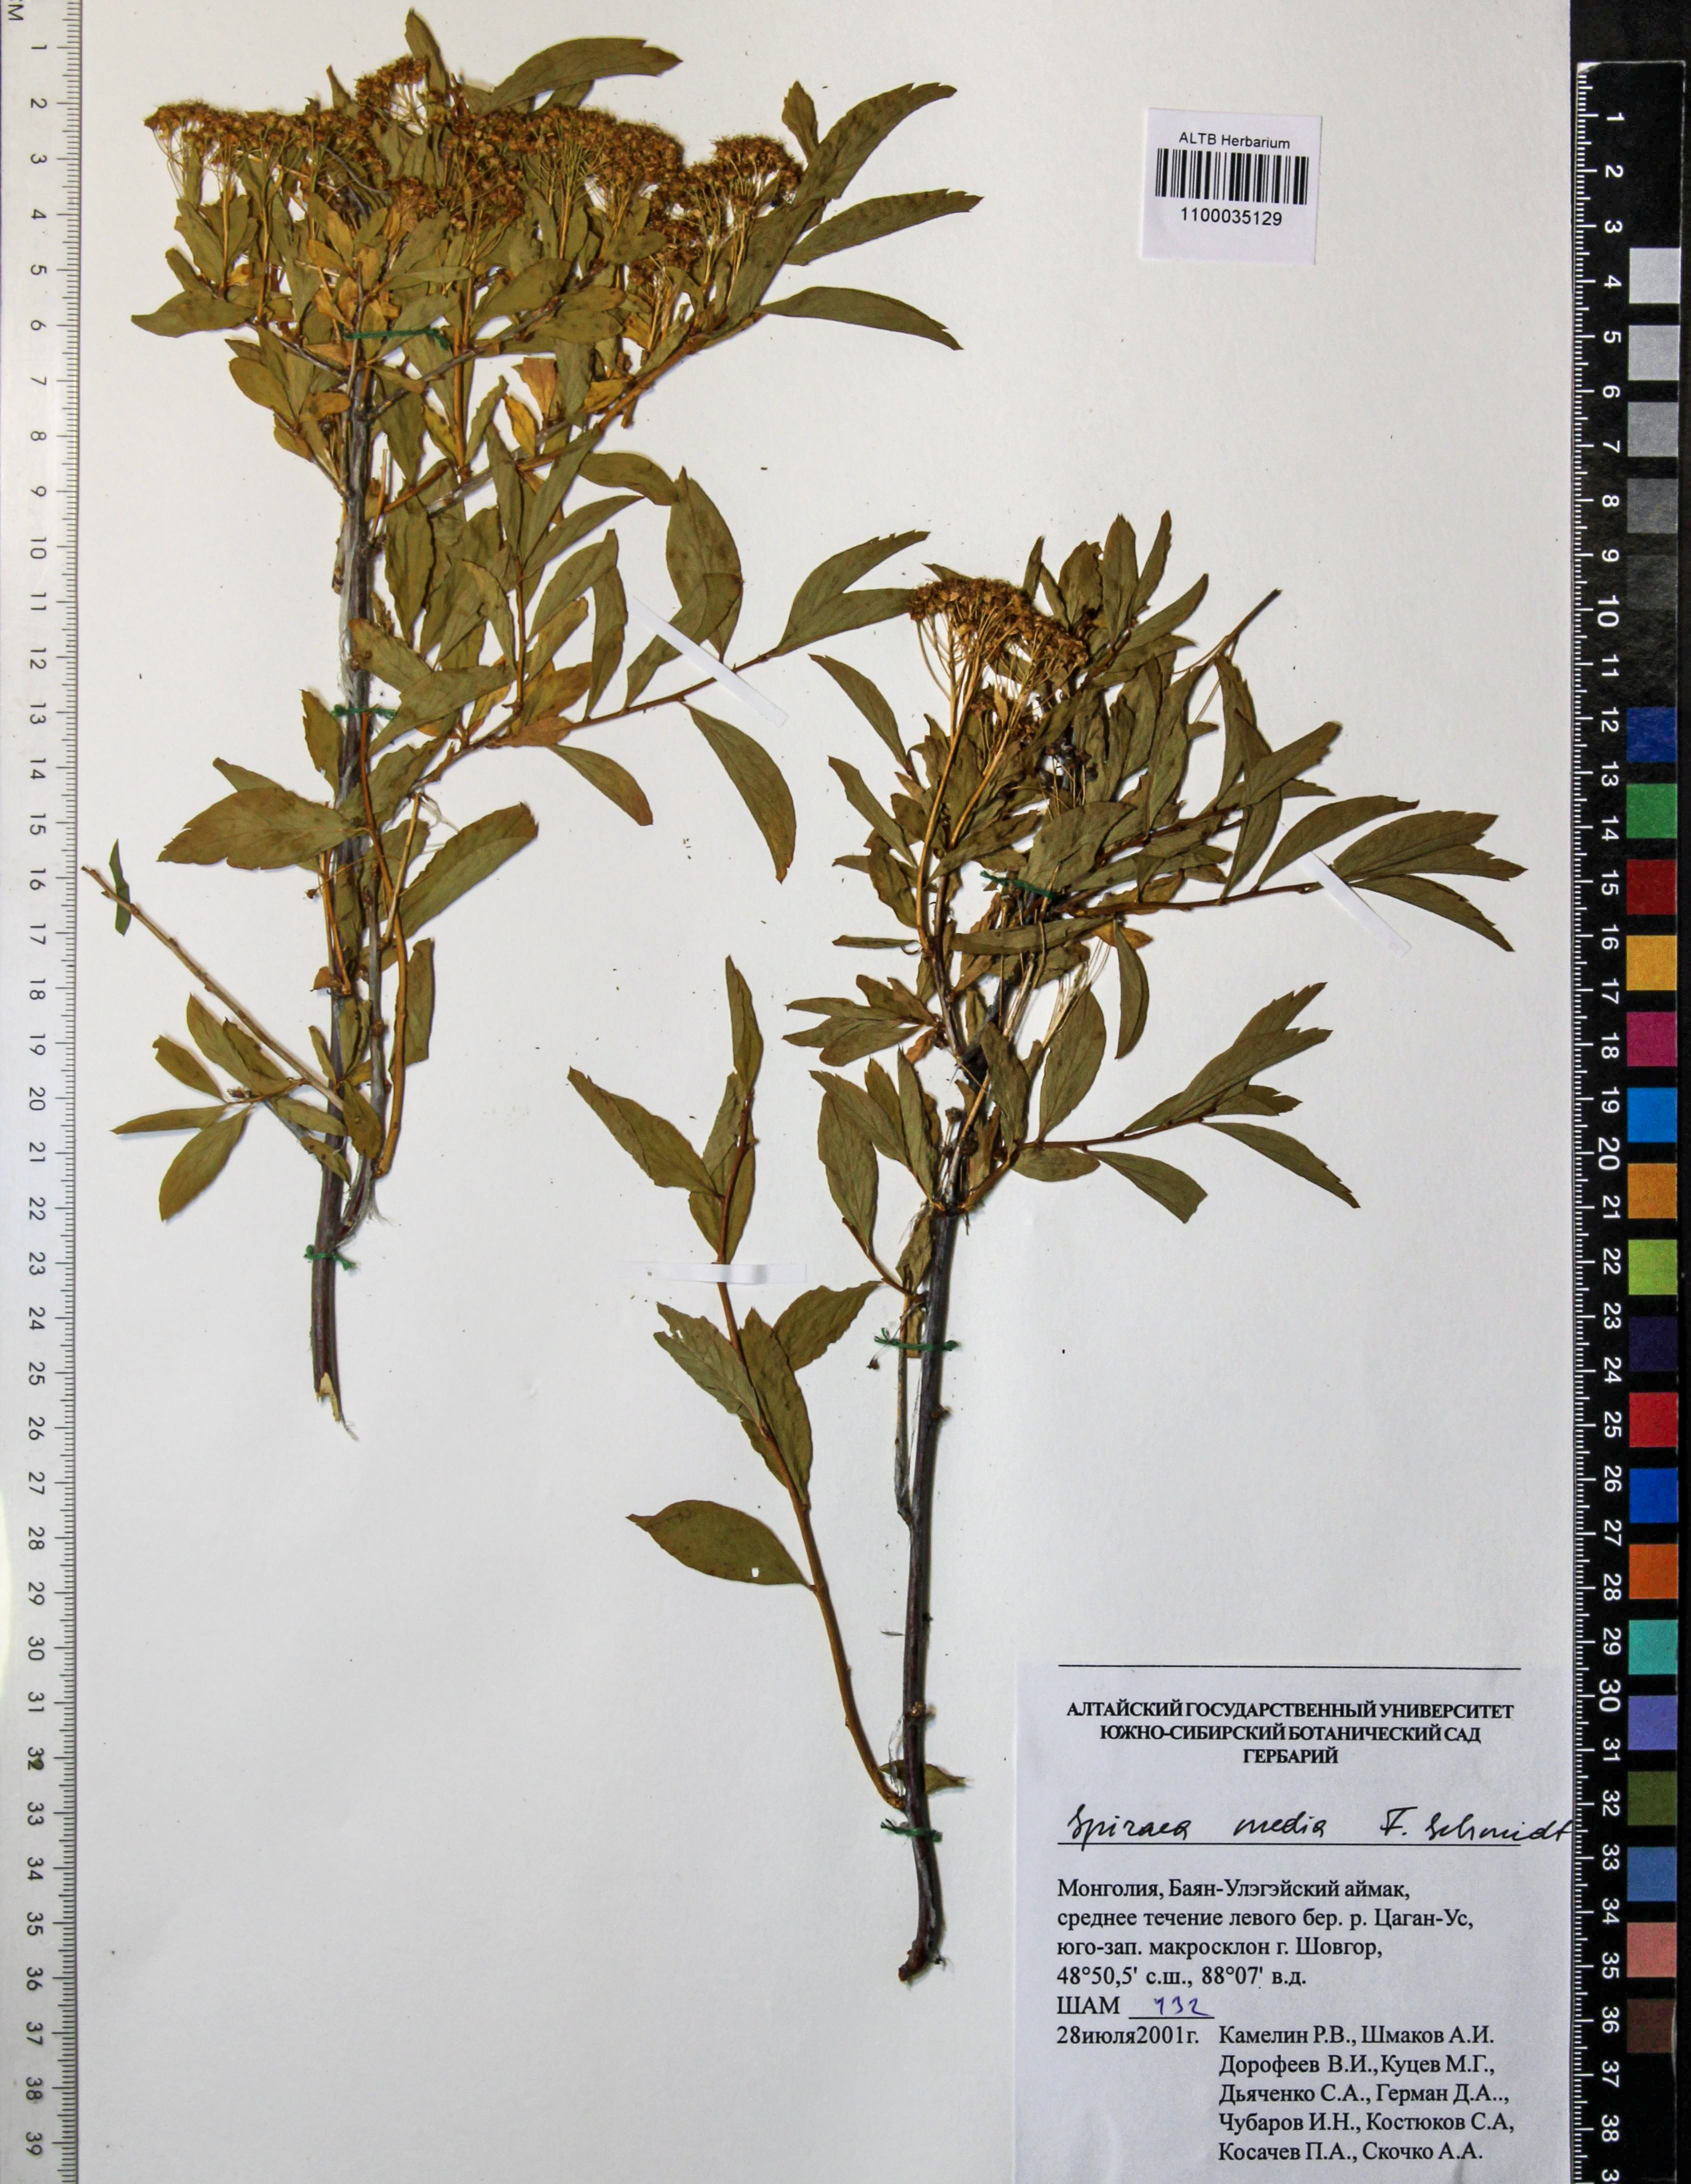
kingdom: Plantae
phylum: Tracheophyta
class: Magnoliopsida
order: Rosales
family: Rosaceae
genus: Spiraea
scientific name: Spiraea media
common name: Russian spiraea
